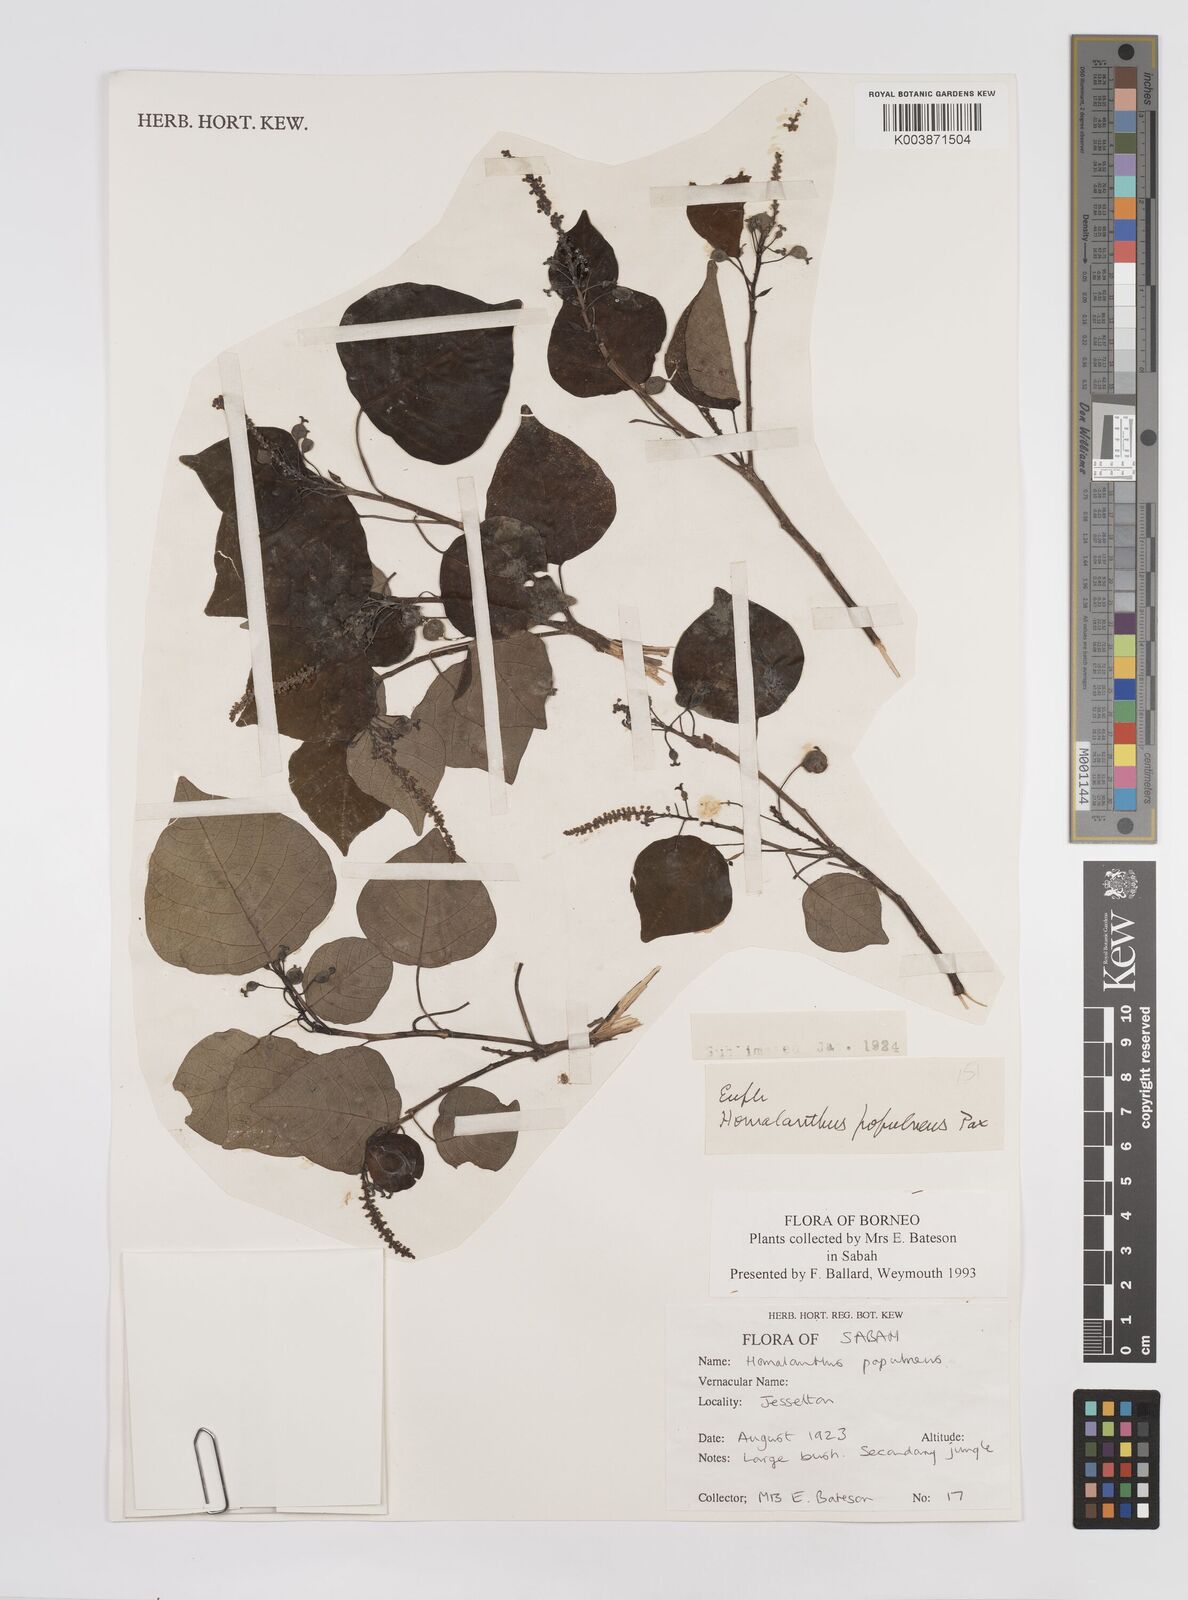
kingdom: Plantae
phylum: Tracheophyta
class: Magnoliopsida
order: Malpighiales
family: Euphorbiaceae
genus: Homalanthus
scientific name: Homalanthus populneus
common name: Spurge
